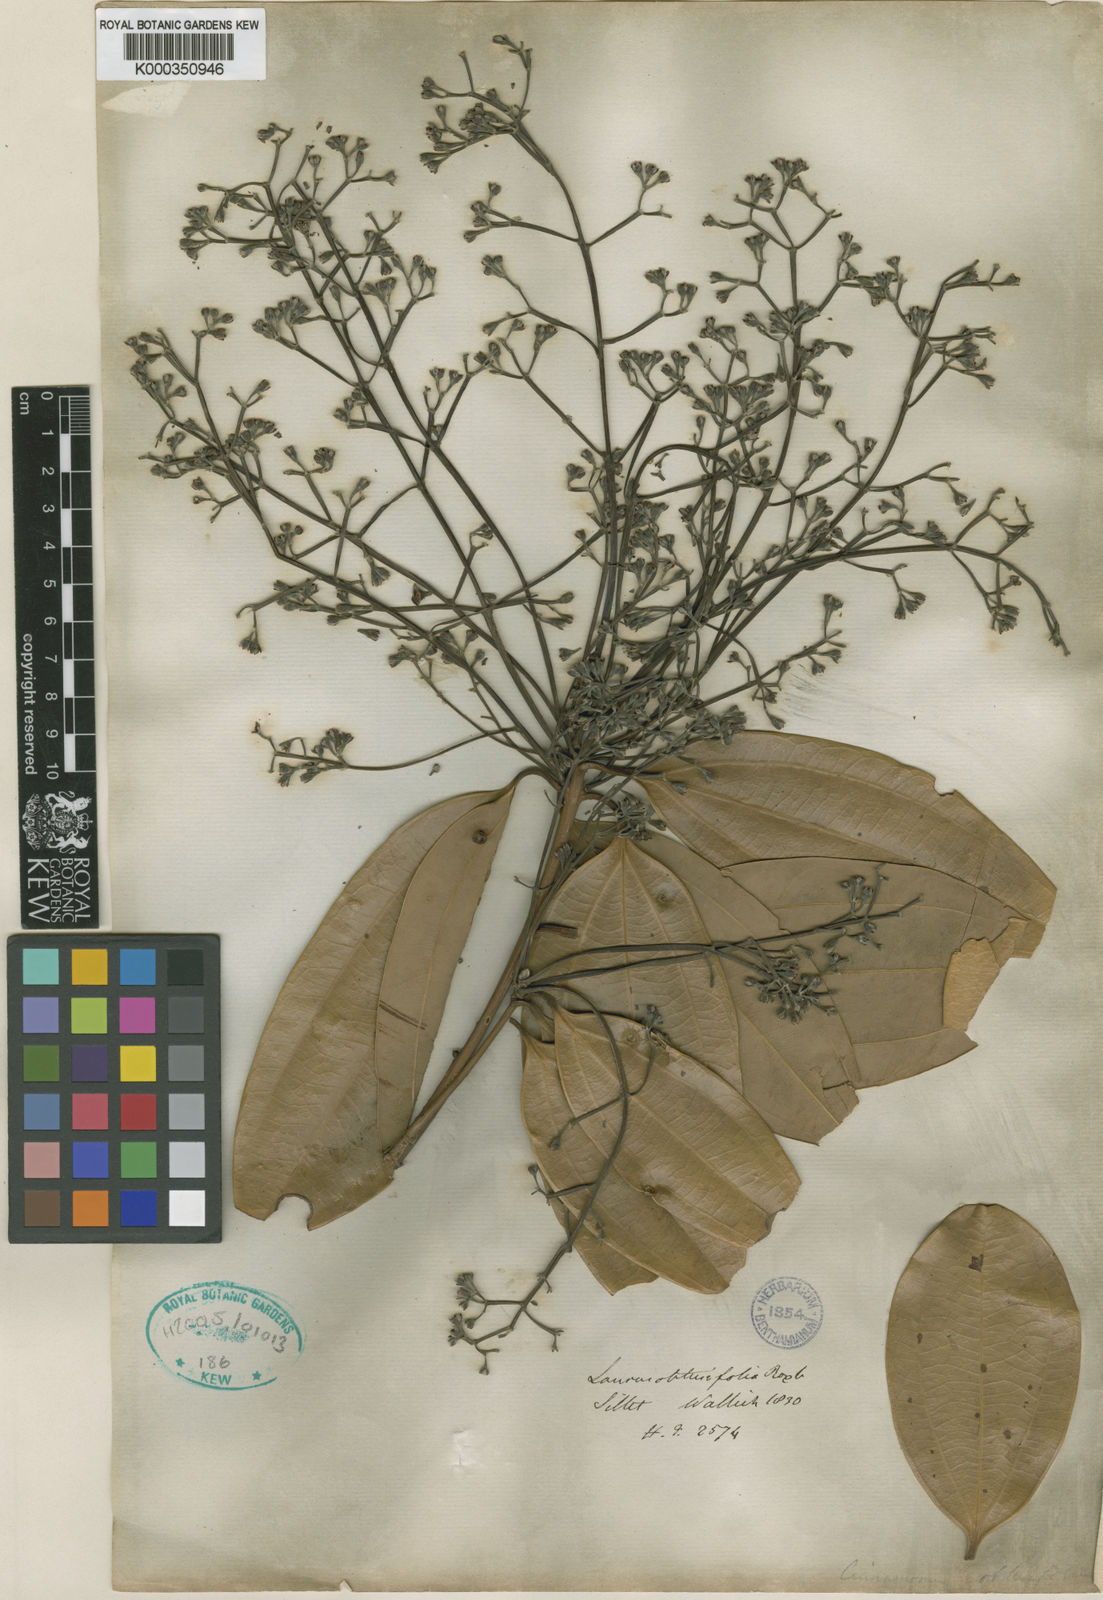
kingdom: Plantae
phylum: Tracheophyta
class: Magnoliopsida
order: Laurales
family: Lauraceae
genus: Cinnamomum
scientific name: Cinnamomum bejolghota
